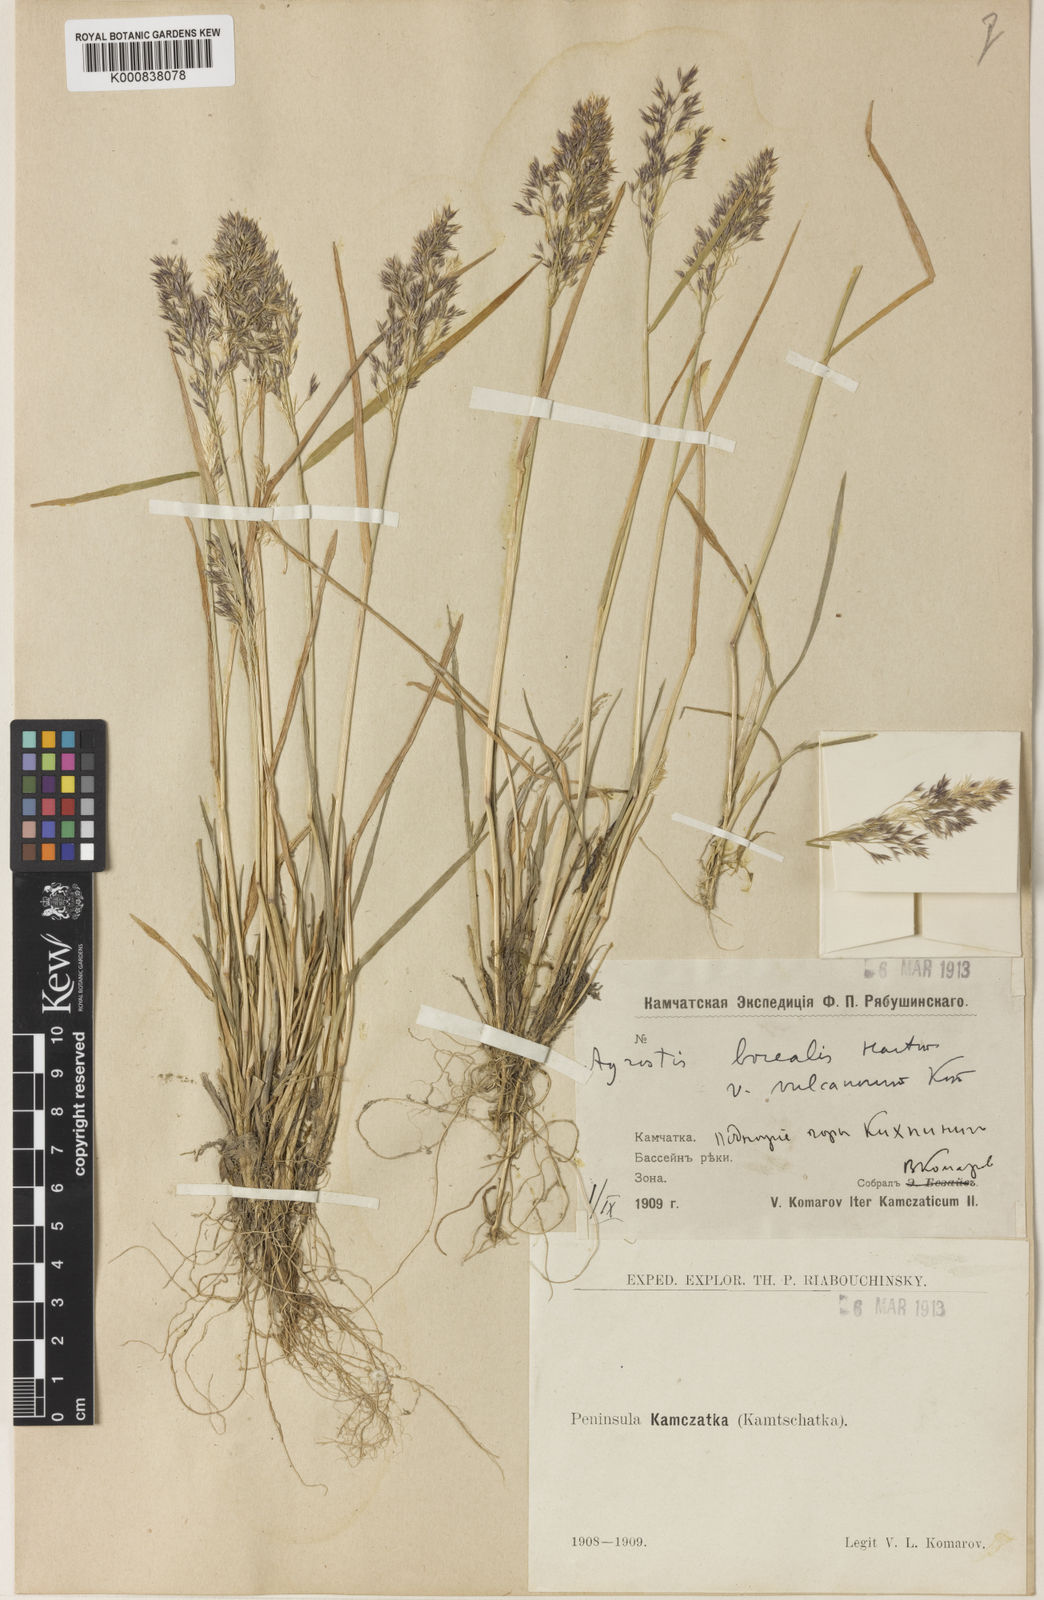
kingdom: Plantae
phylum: Tracheophyta
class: Liliopsida
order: Poales
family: Poaceae
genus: Agrostis
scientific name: Agrostis mertensii
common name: Northern bent
